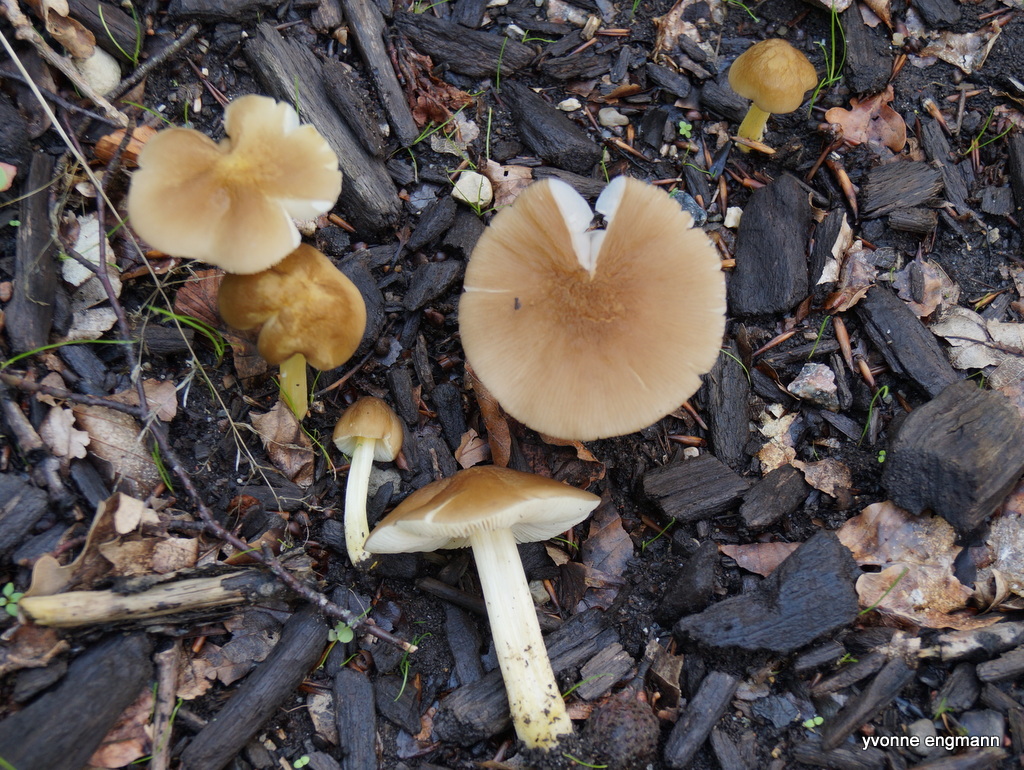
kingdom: Fungi
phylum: Basidiomycota
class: Agaricomycetes
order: Agaricales
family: Pluteaceae
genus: Pluteus
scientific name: Pluteus romellii
